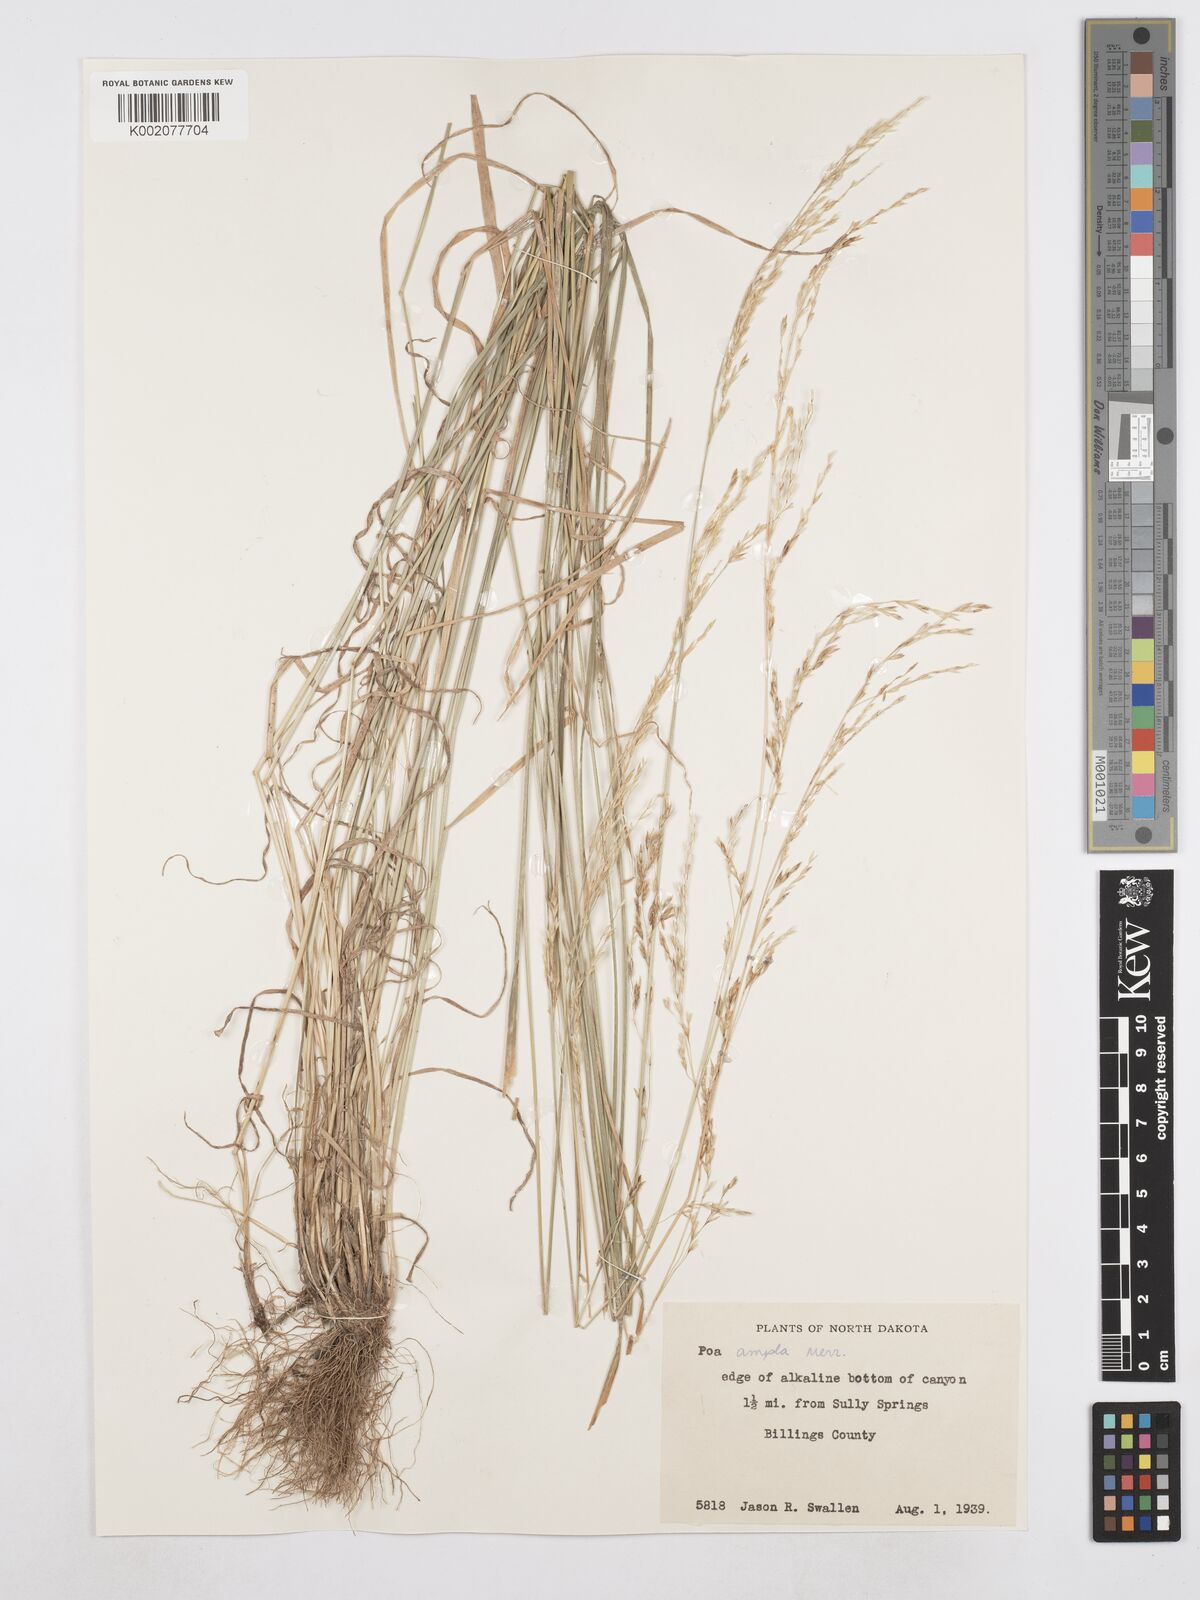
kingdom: Plantae
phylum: Tracheophyta
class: Liliopsida
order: Poales
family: Poaceae
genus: Poa
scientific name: Poa secunda
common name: Sandberg bluegrass
